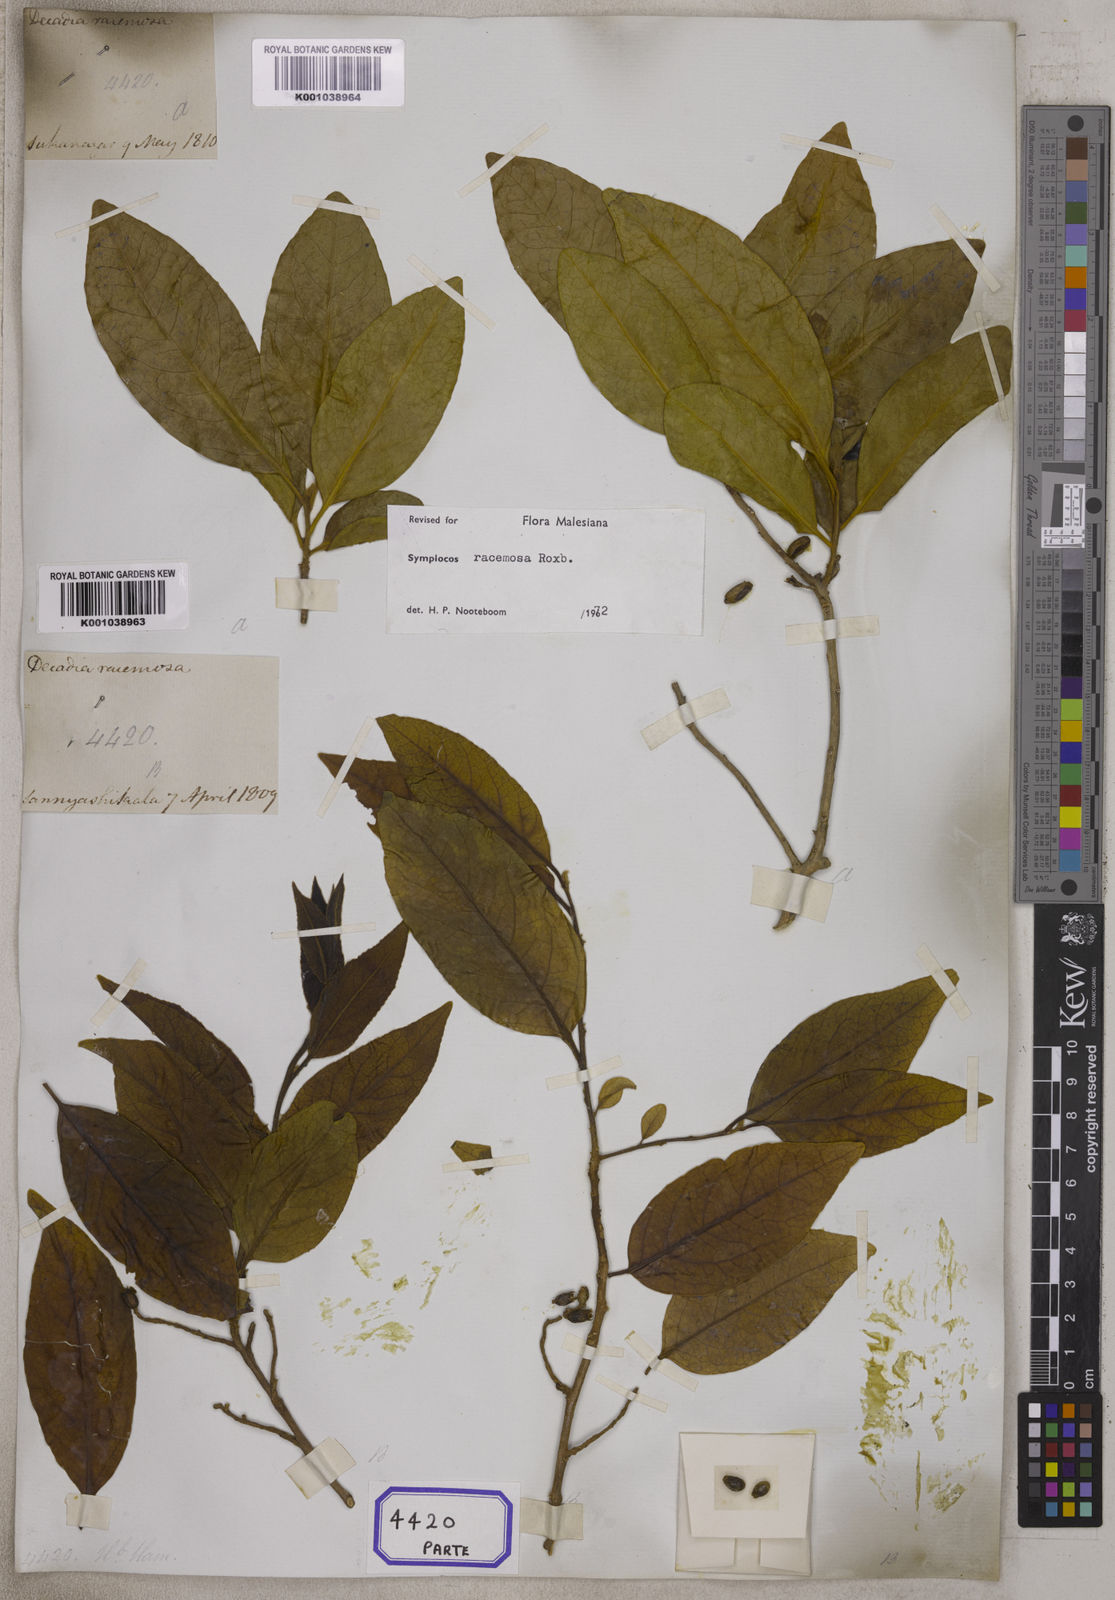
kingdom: Plantae
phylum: Tracheophyta
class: Magnoliopsida
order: Ericales
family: Symplocaceae
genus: Symplocos
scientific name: Symplocos
